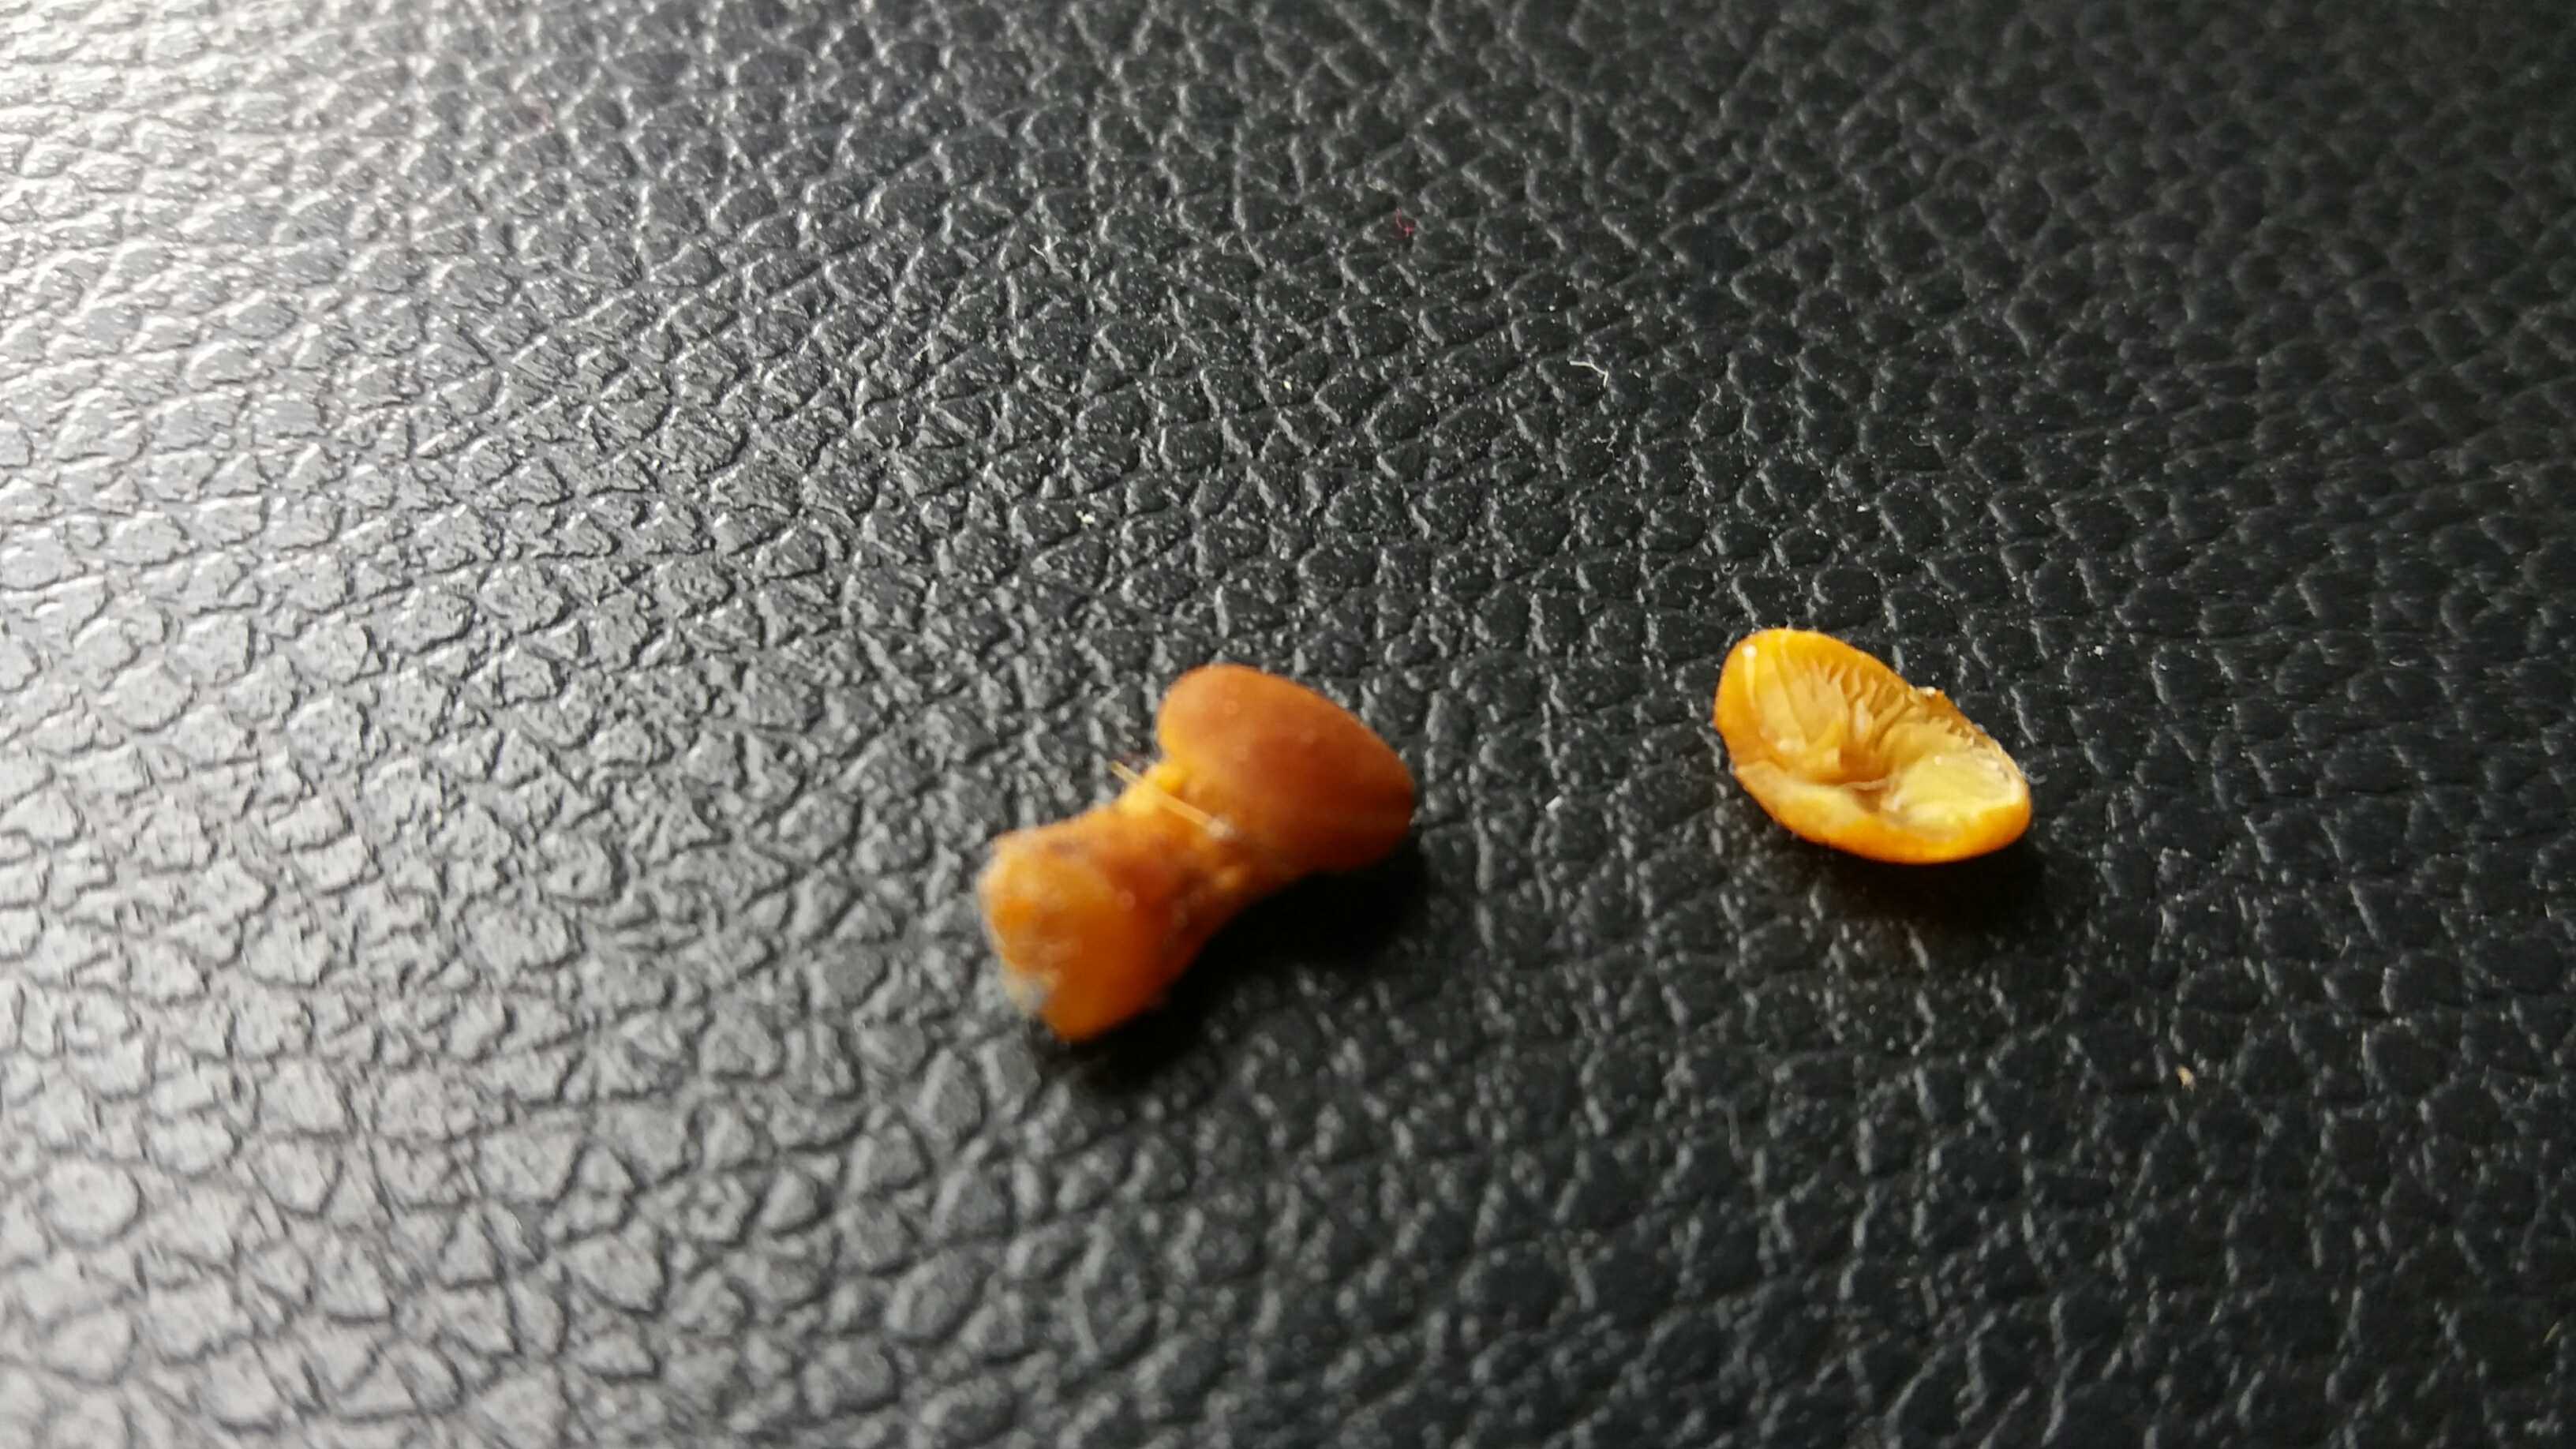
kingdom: Fungi
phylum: Basidiomycota
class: Agaricomycetes
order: Agaricales
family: Tubariaceae
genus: Flammulaster
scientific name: Flammulaster limulatus
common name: gylden grynskælhat
